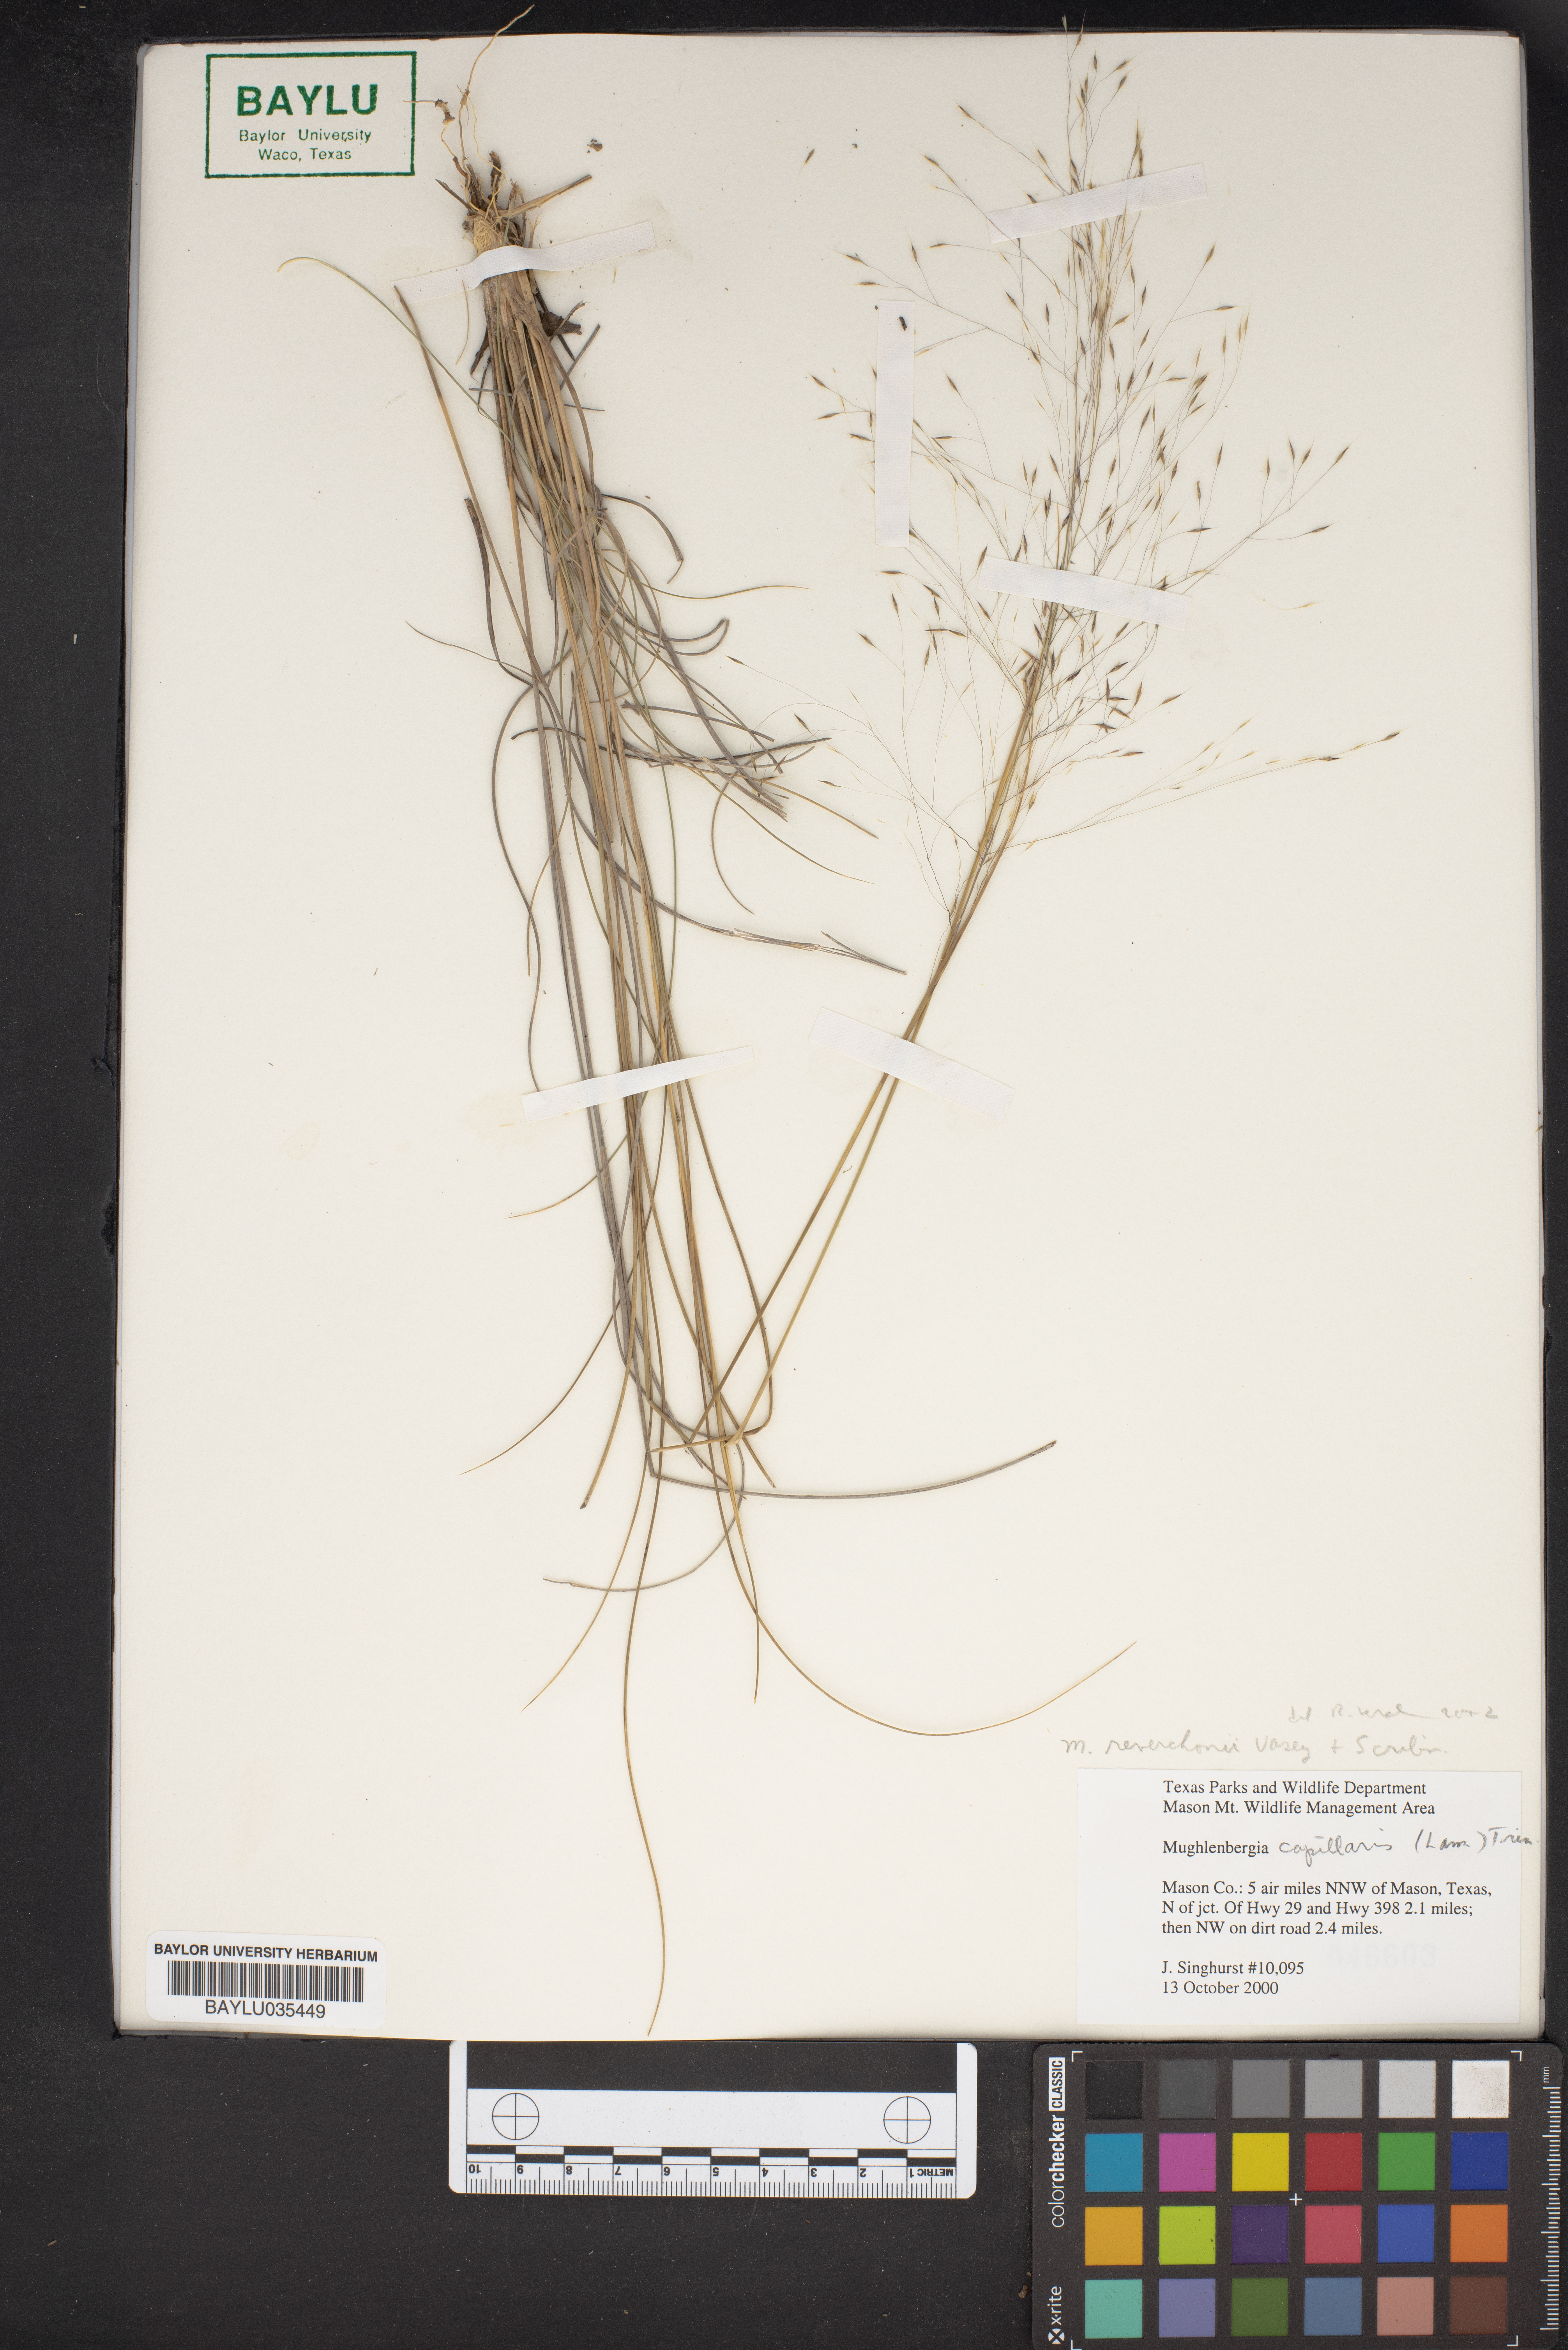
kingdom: Plantae
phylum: Tracheophyta
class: Liliopsida
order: Poales
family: Poaceae
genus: Muhlenbergia
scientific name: Muhlenbergia reverchonii
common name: Seep muhly
